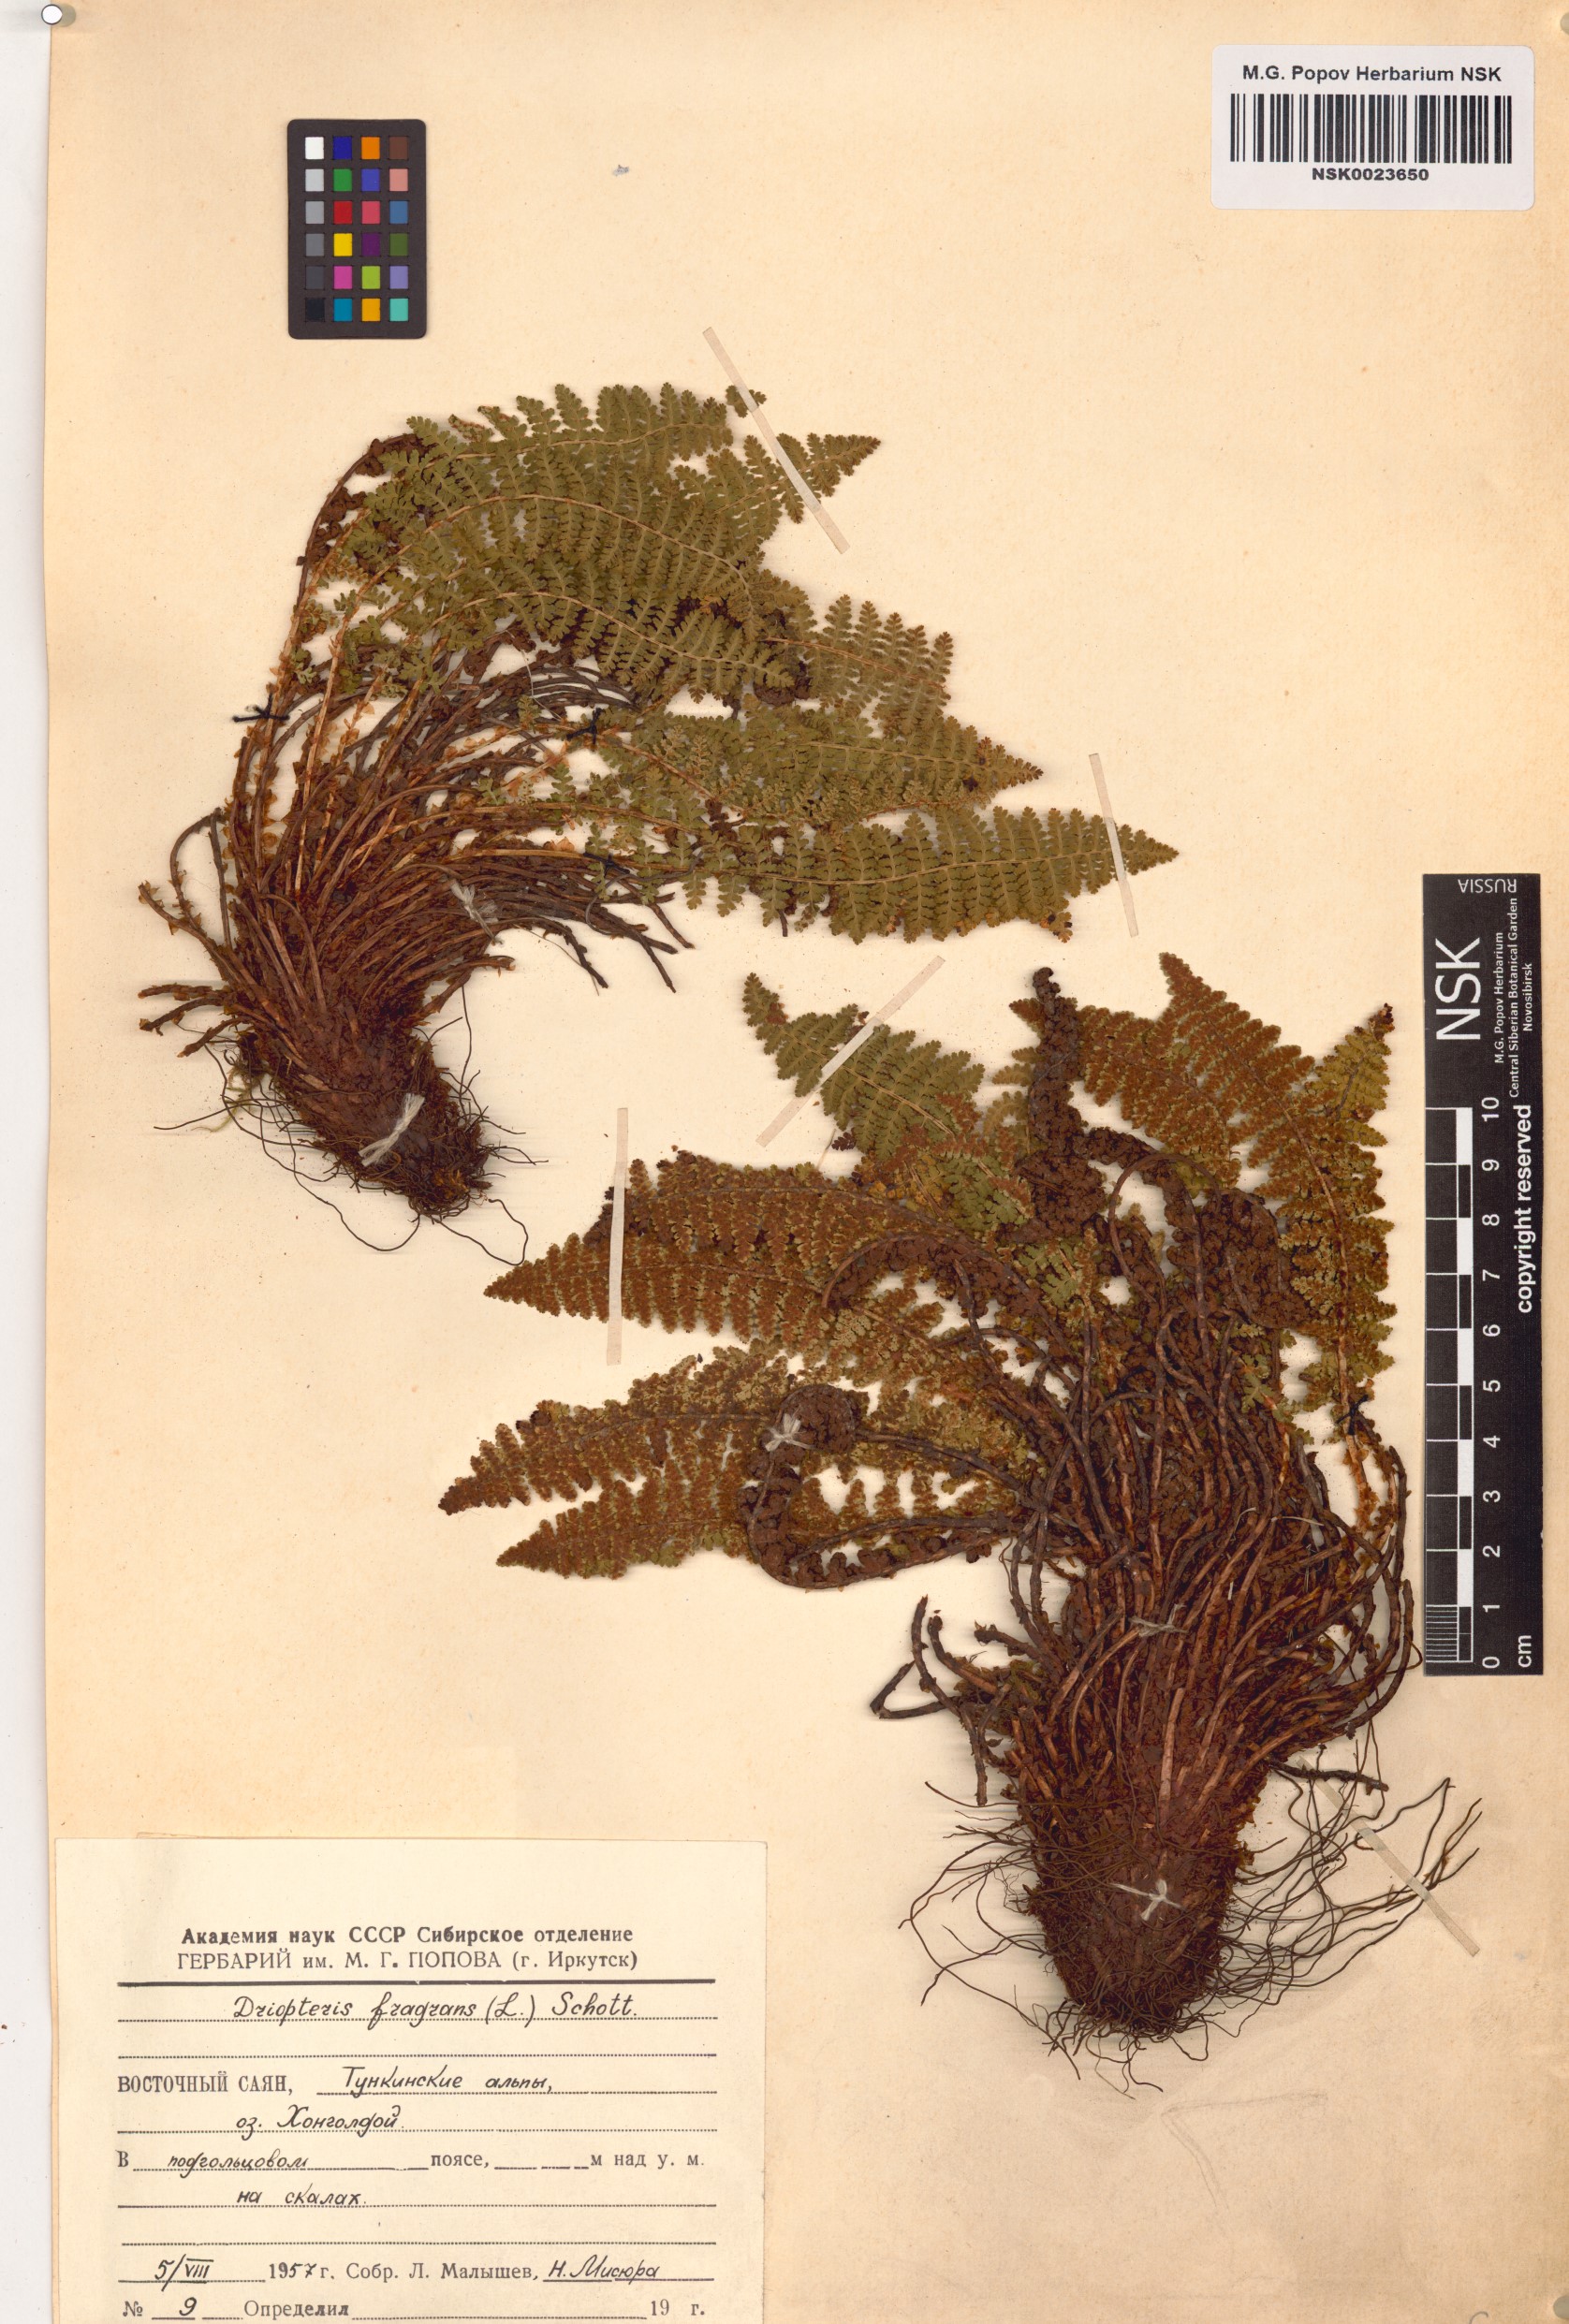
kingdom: Plantae
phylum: Tracheophyta
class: Polypodiopsida
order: Polypodiales
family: Dryopteridaceae
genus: Dryopteris
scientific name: Dryopteris fragrans
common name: Fragrant wood fern
